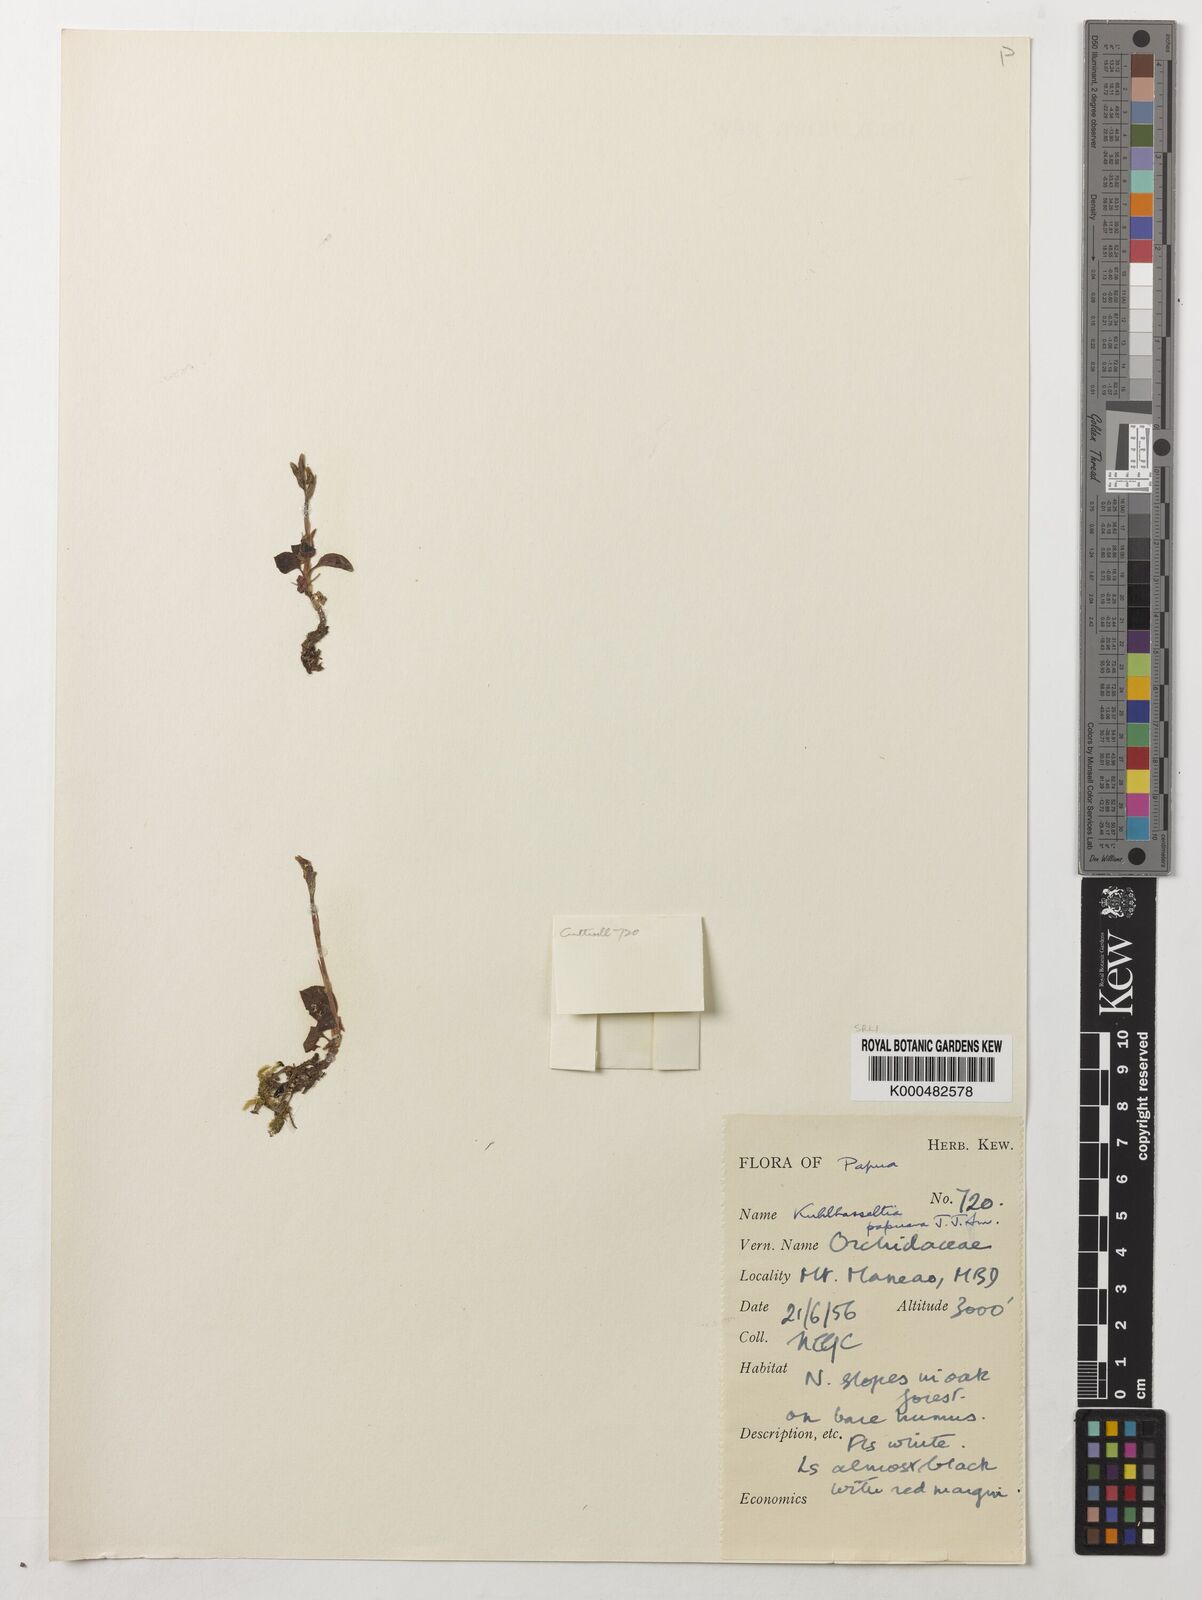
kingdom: Plantae
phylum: Tracheophyta
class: Liliopsida
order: Asparagales
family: Orchidaceae
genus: Odontochilus
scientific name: Odontochilus papuanus
